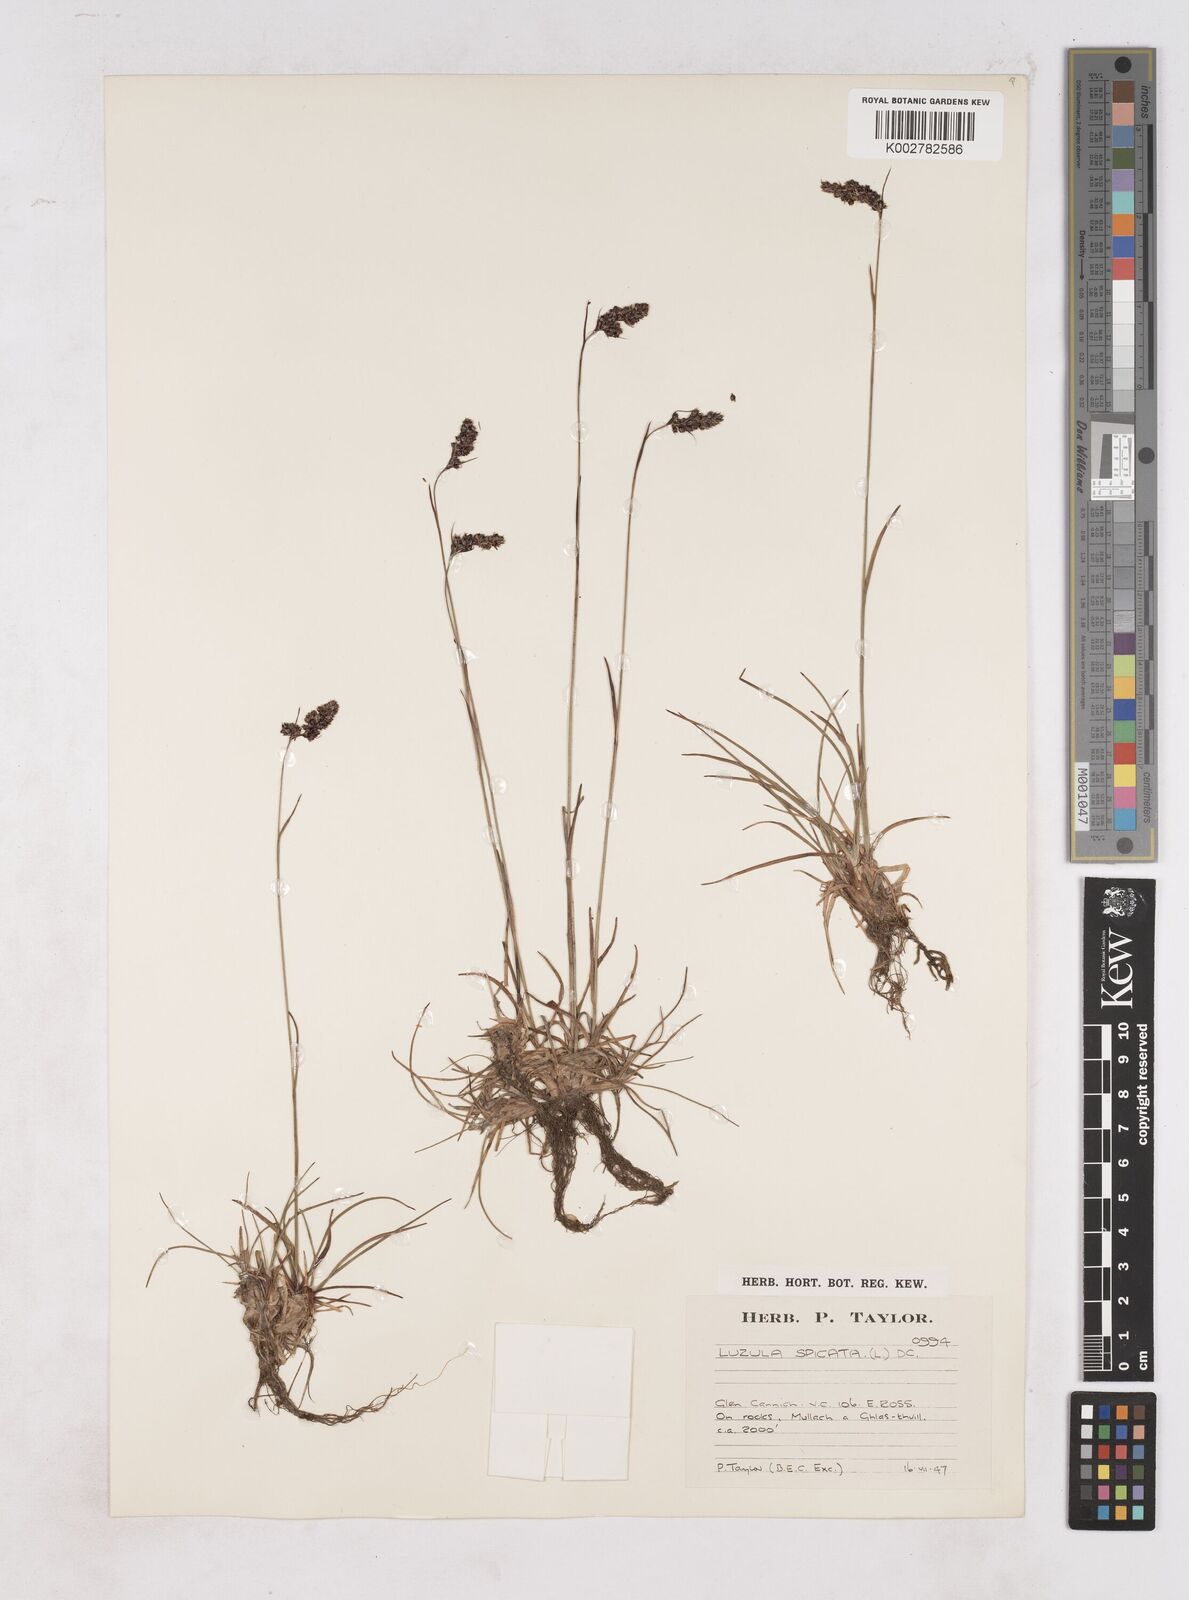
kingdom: Plantae
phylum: Tracheophyta
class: Liliopsida
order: Poales
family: Juncaceae
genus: Luzula
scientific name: Luzula spicata
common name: Spiked wood-rush
